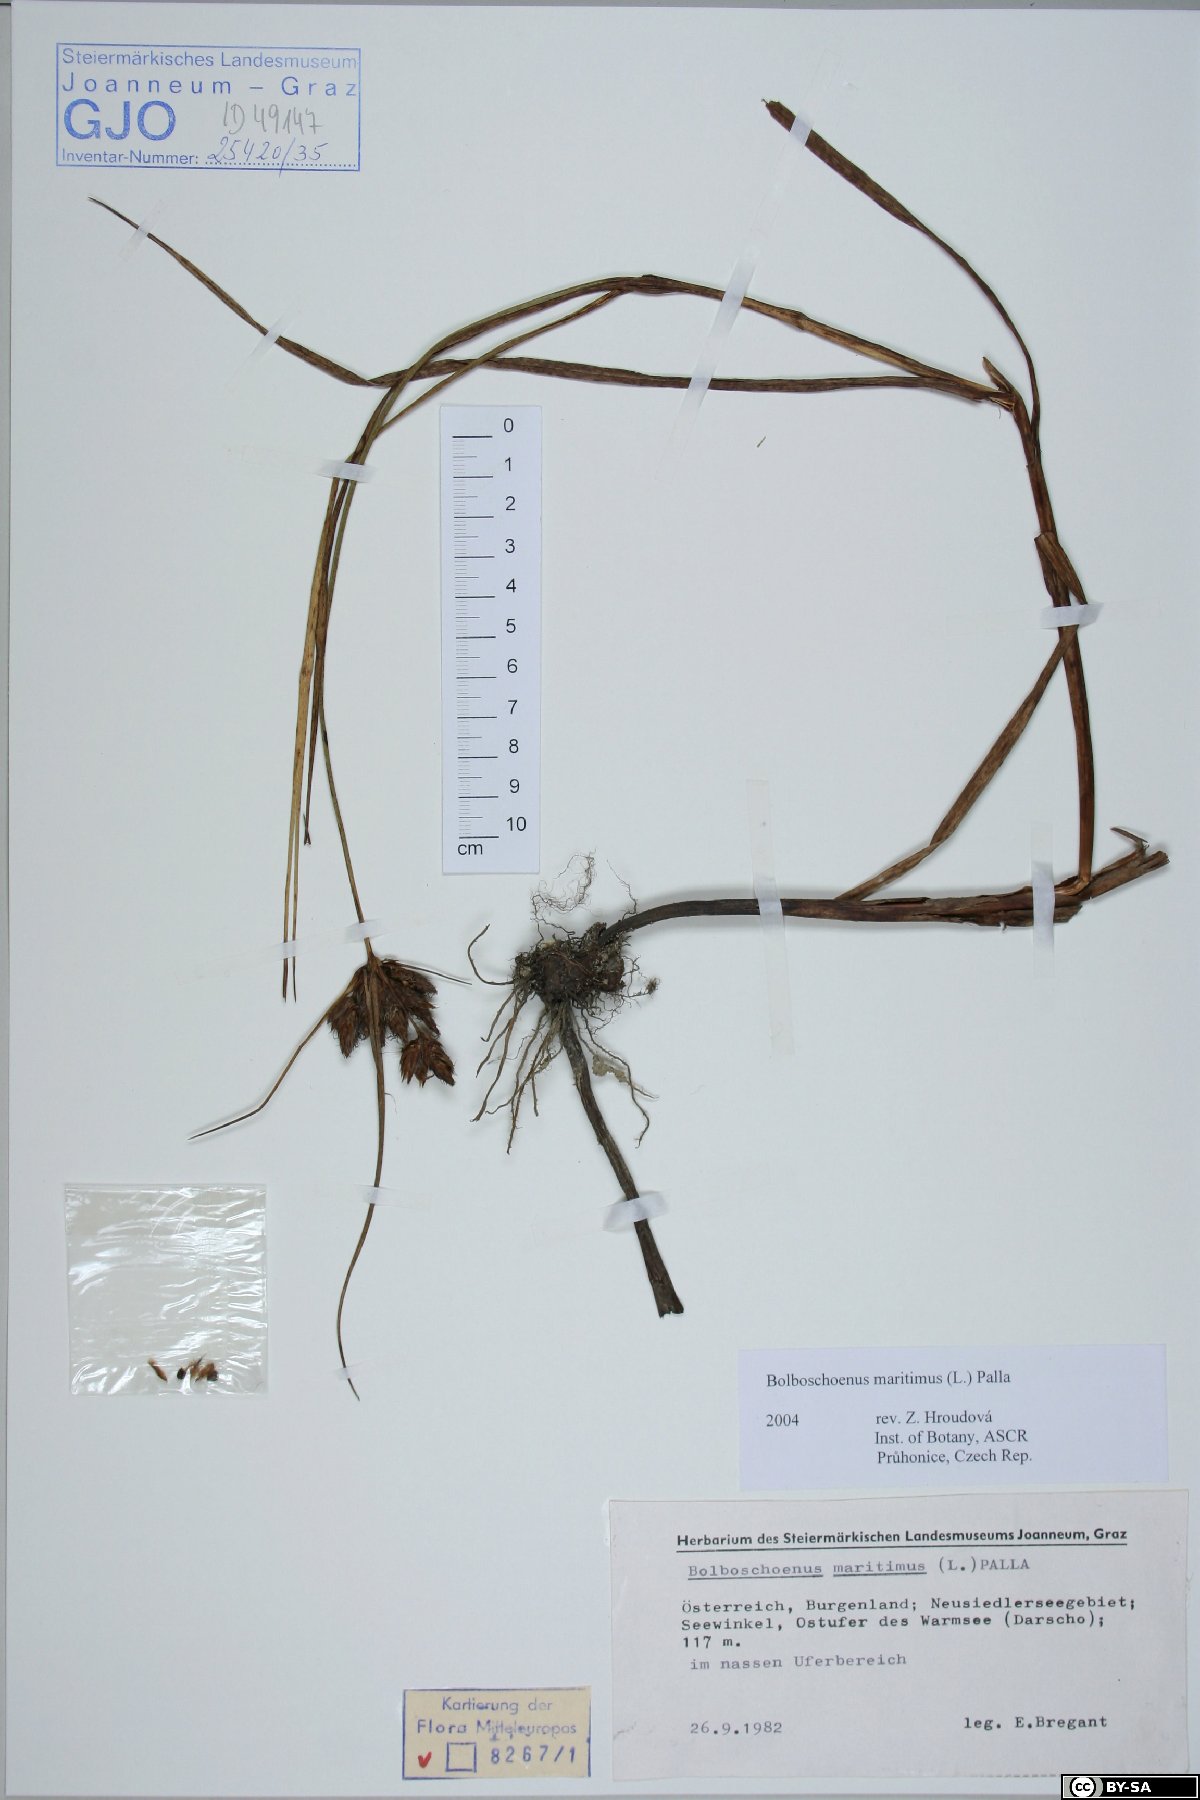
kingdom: Plantae
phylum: Tracheophyta
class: Liliopsida
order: Poales
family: Cyperaceae
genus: Bolboschoenus
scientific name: Bolboschoenus maritimus
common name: Sea club-rush
